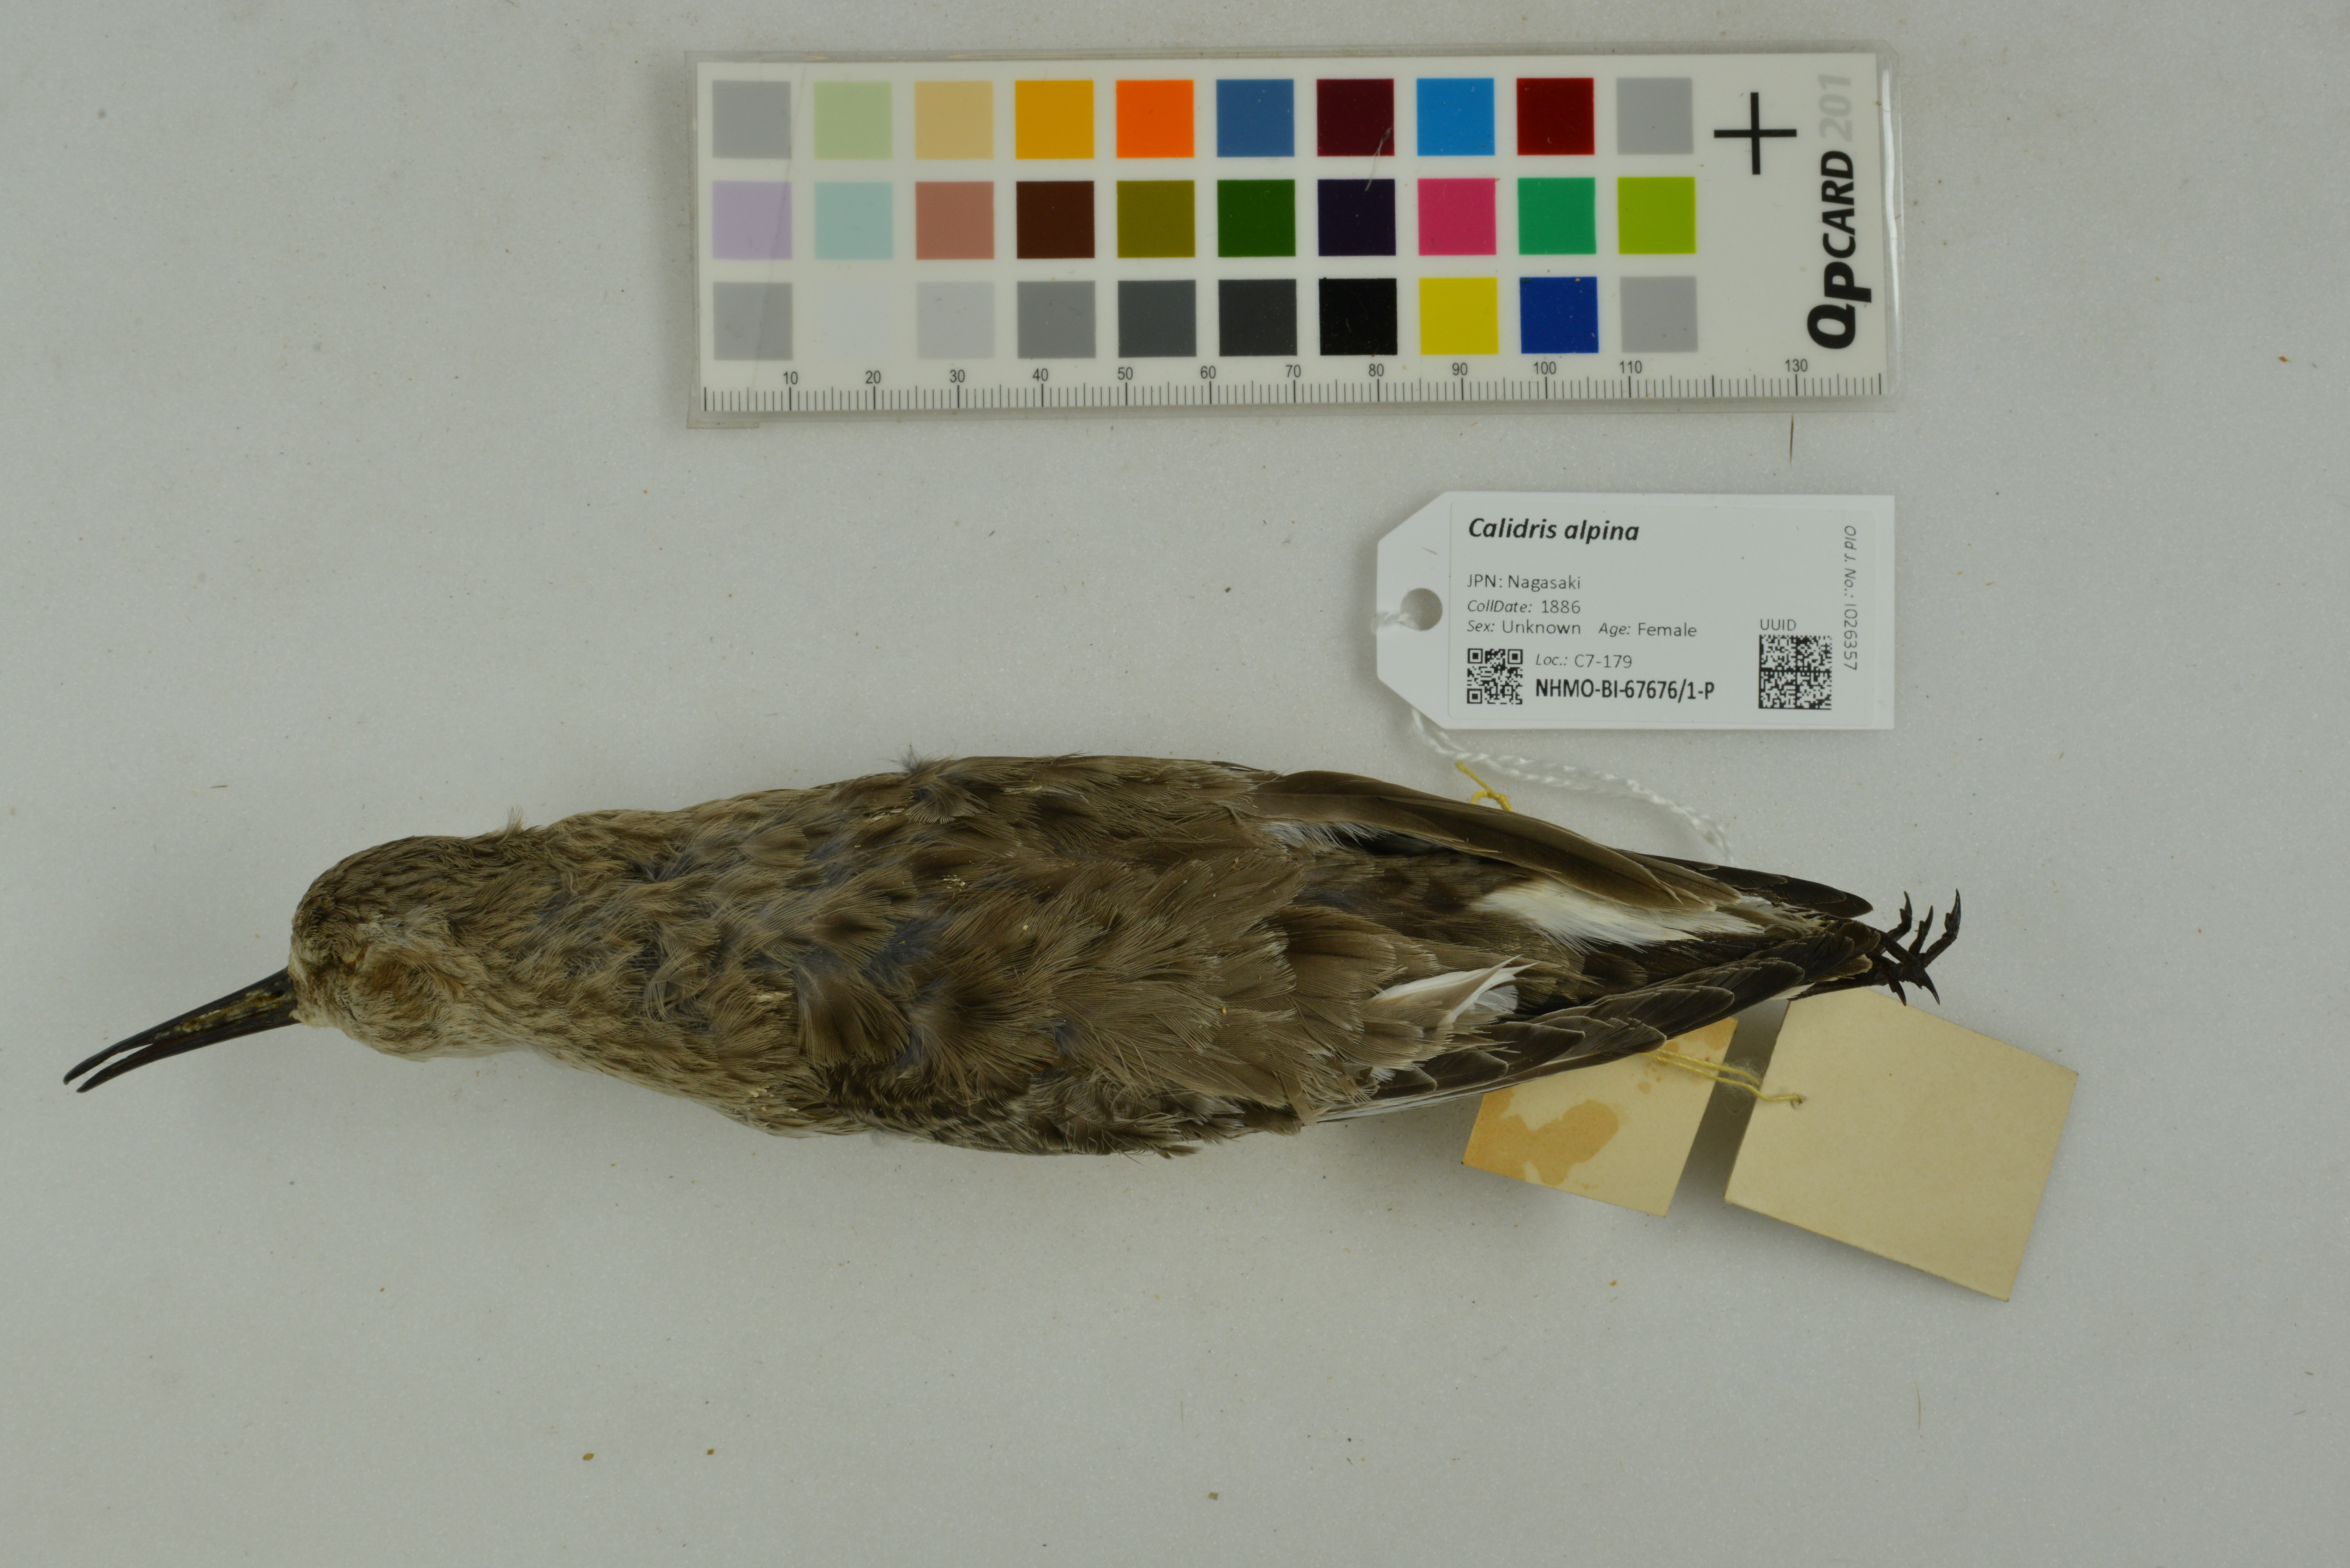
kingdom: Animalia
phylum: Chordata
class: Aves
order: Charadriiformes
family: Scolopacidae
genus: Calidris
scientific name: Calidris alpina
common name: Dunlin
